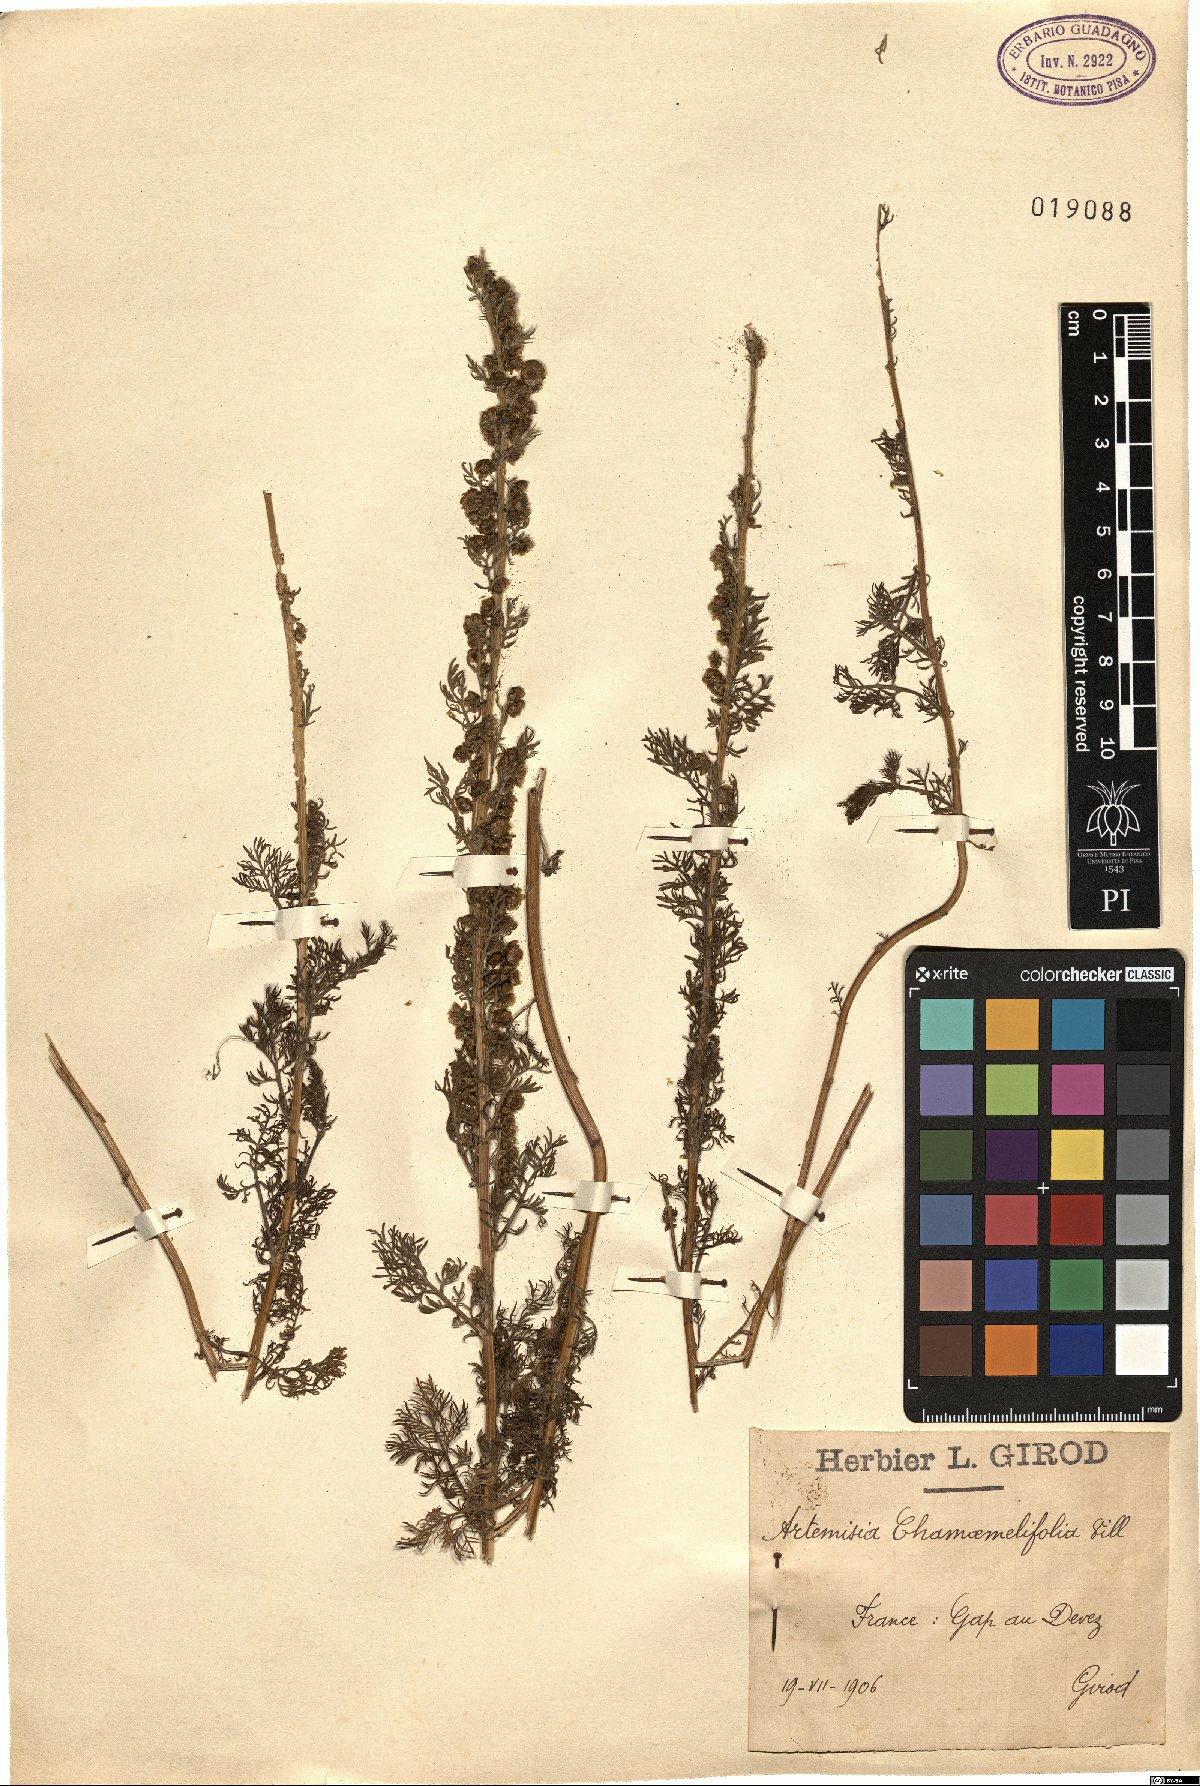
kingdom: Plantae
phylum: Tracheophyta
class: Magnoliopsida
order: Asterales
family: Asteraceae
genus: Artemisia
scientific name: Artemisia chamaemelifolia
